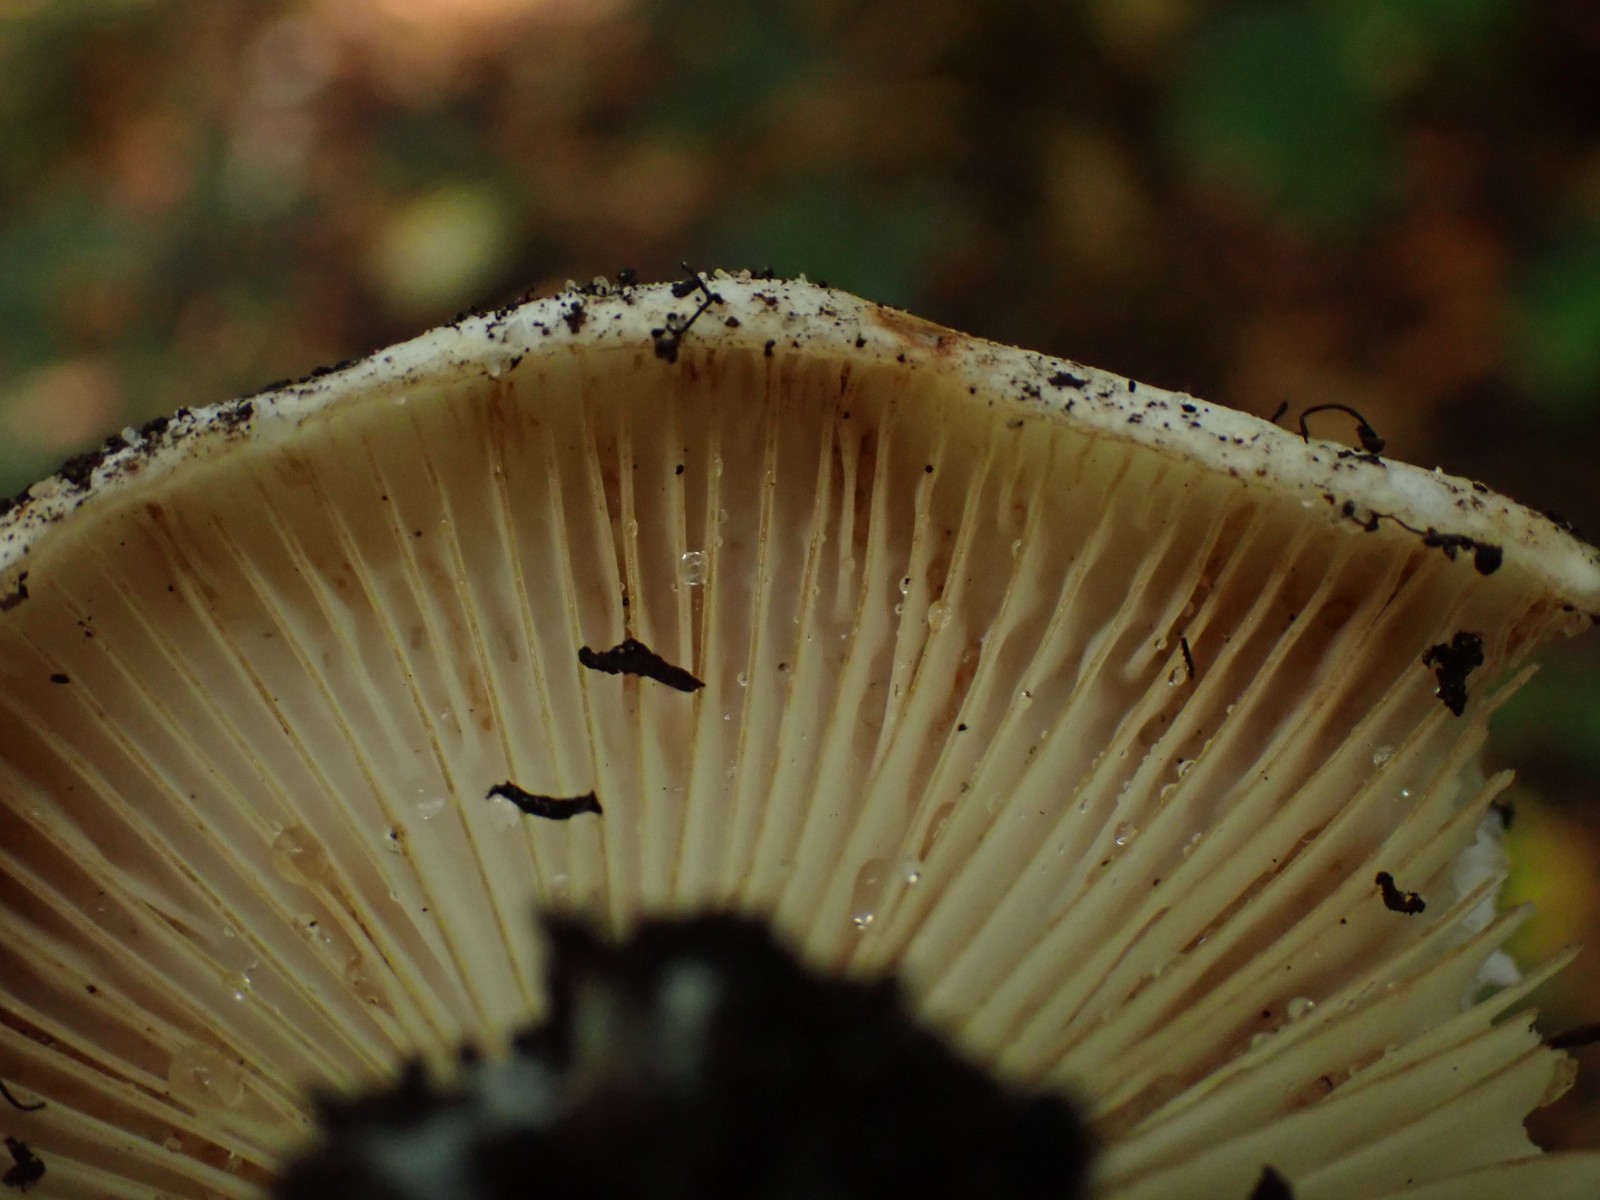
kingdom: Fungi
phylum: Basidiomycota
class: Agaricomycetes
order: Russulales
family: Russulaceae
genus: Russula
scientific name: Russula delica
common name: almindelig tragt-skørhat
